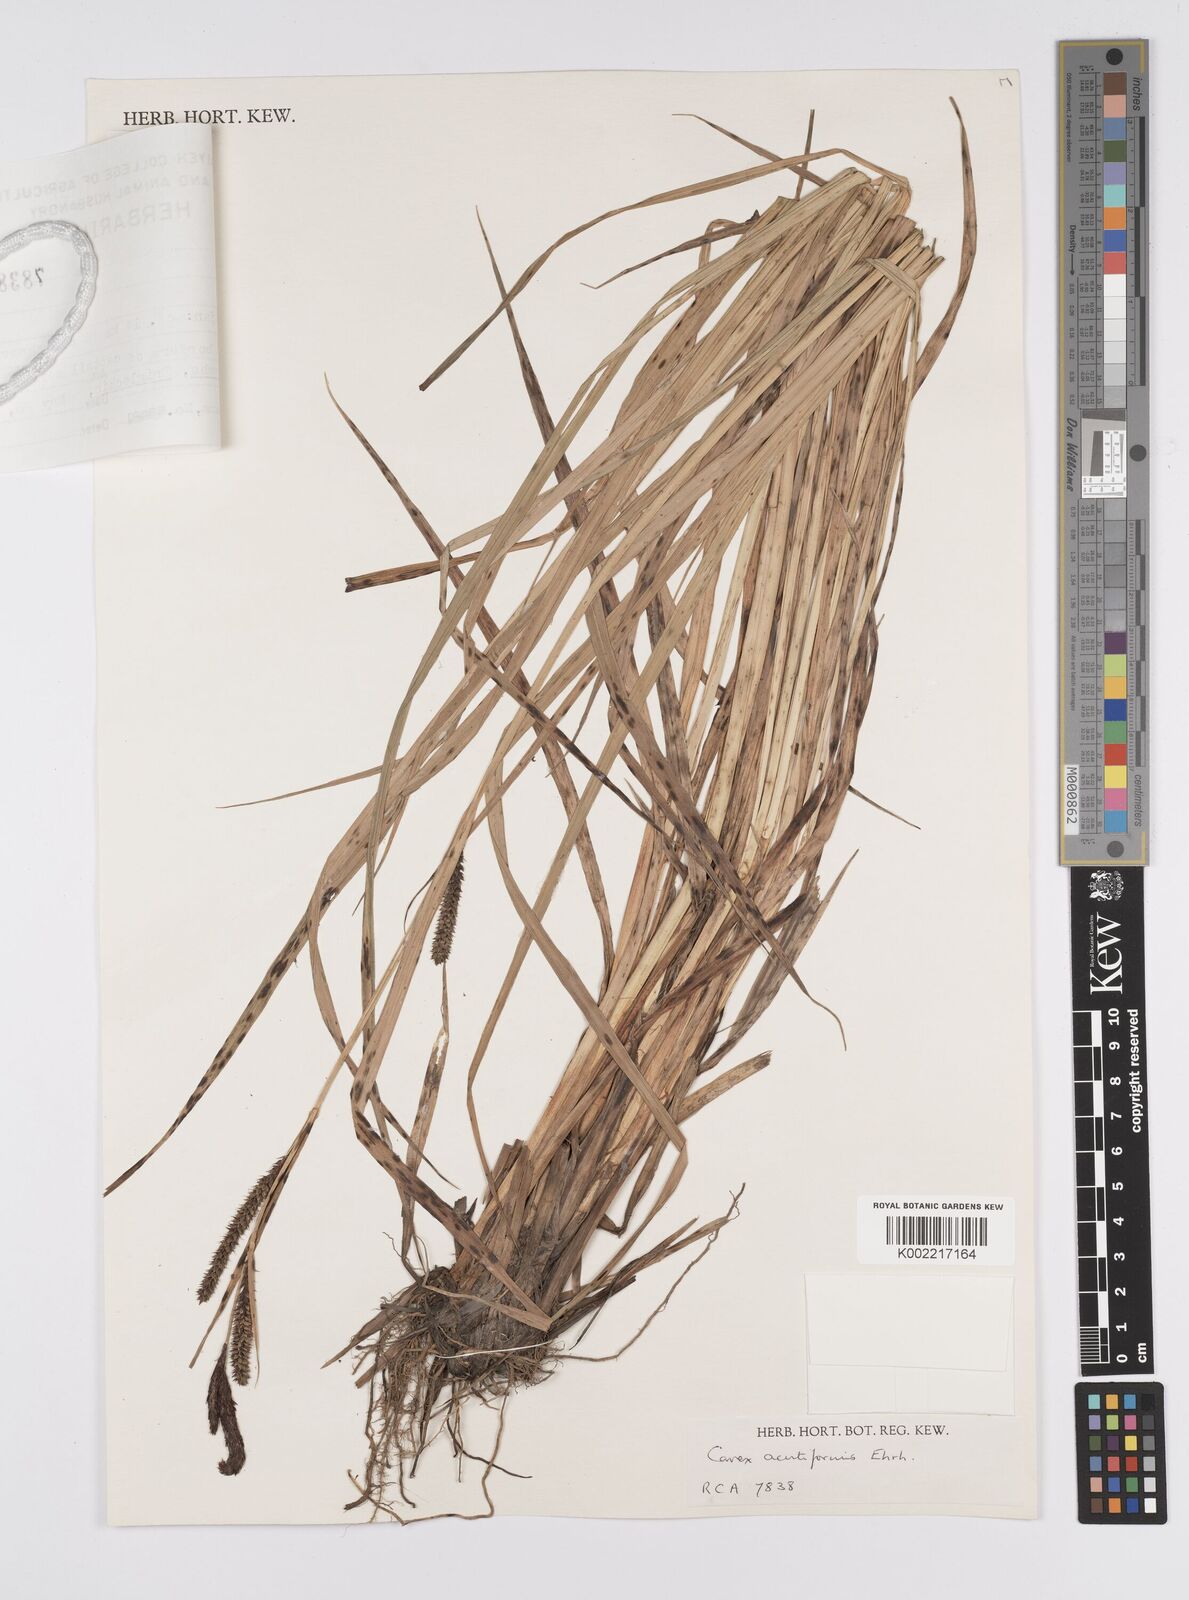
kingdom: Plantae
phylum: Tracheophyta
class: Liliopsida
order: Poales
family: Cyperaceae
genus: Carex
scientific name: Carex acutiformis
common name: Lesser pond-sedge
